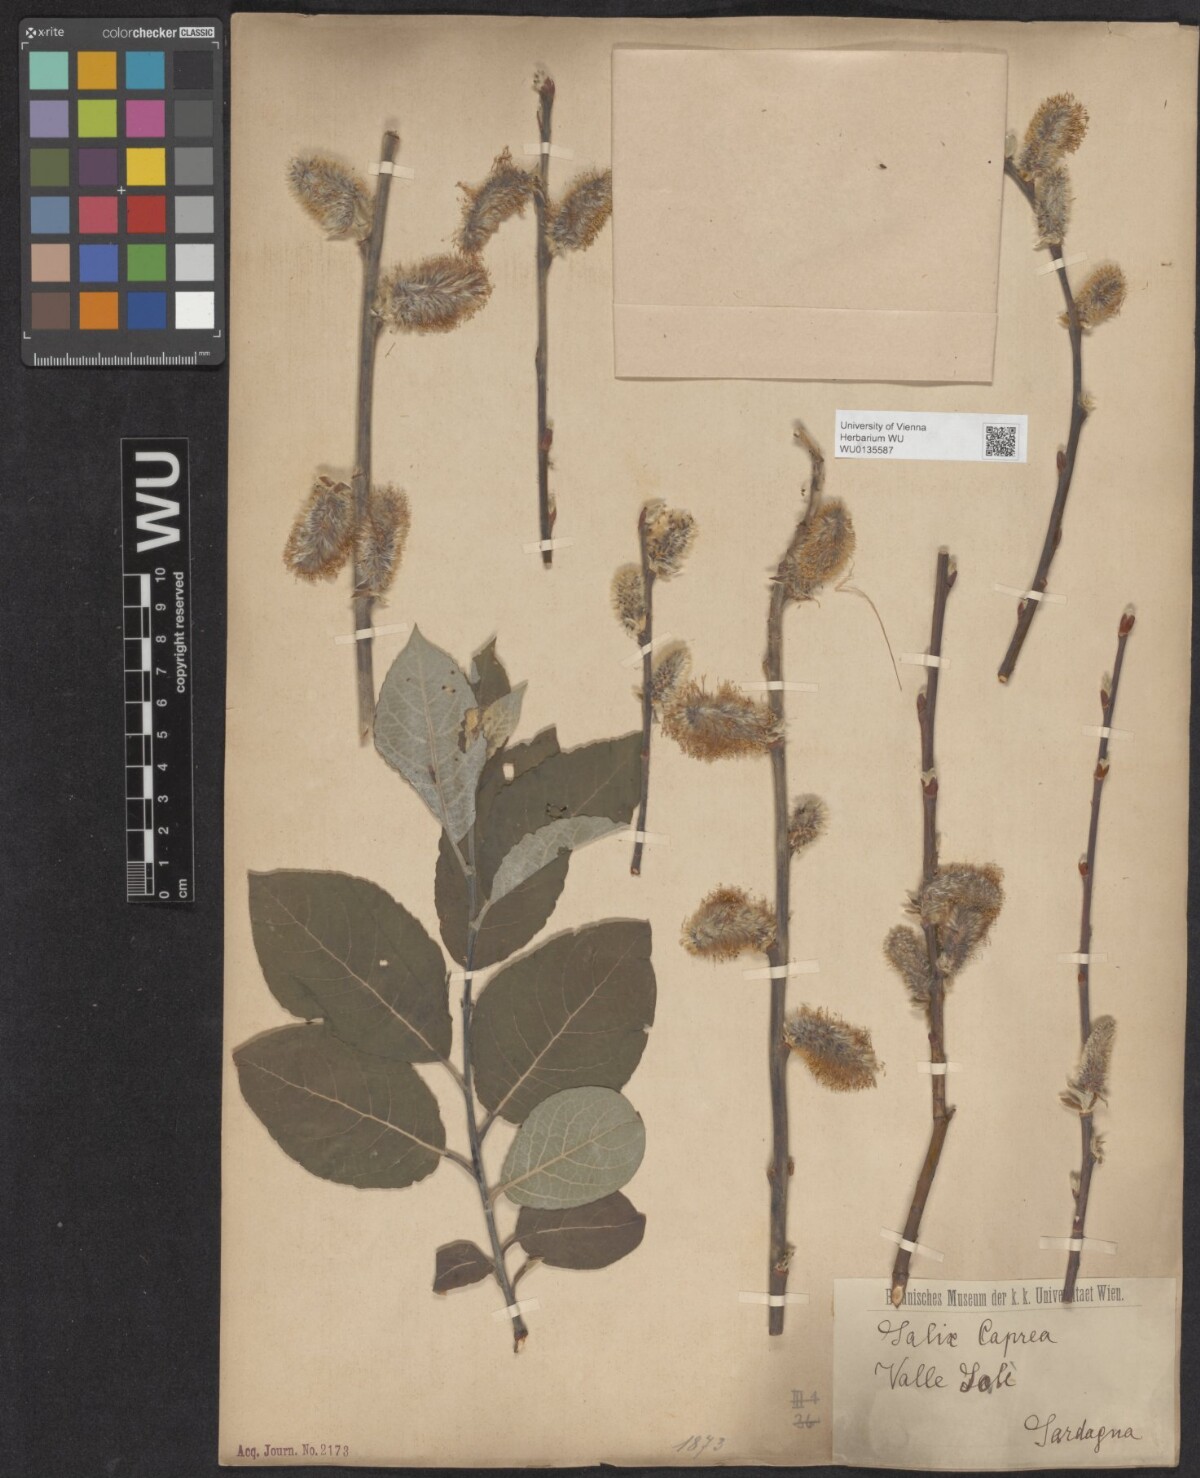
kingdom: Plantae
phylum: Tracheophyta
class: Magnoliopsida
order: Malpighiales
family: Salicaceae
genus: Salix
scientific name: Salix caprea
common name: Goat willow
